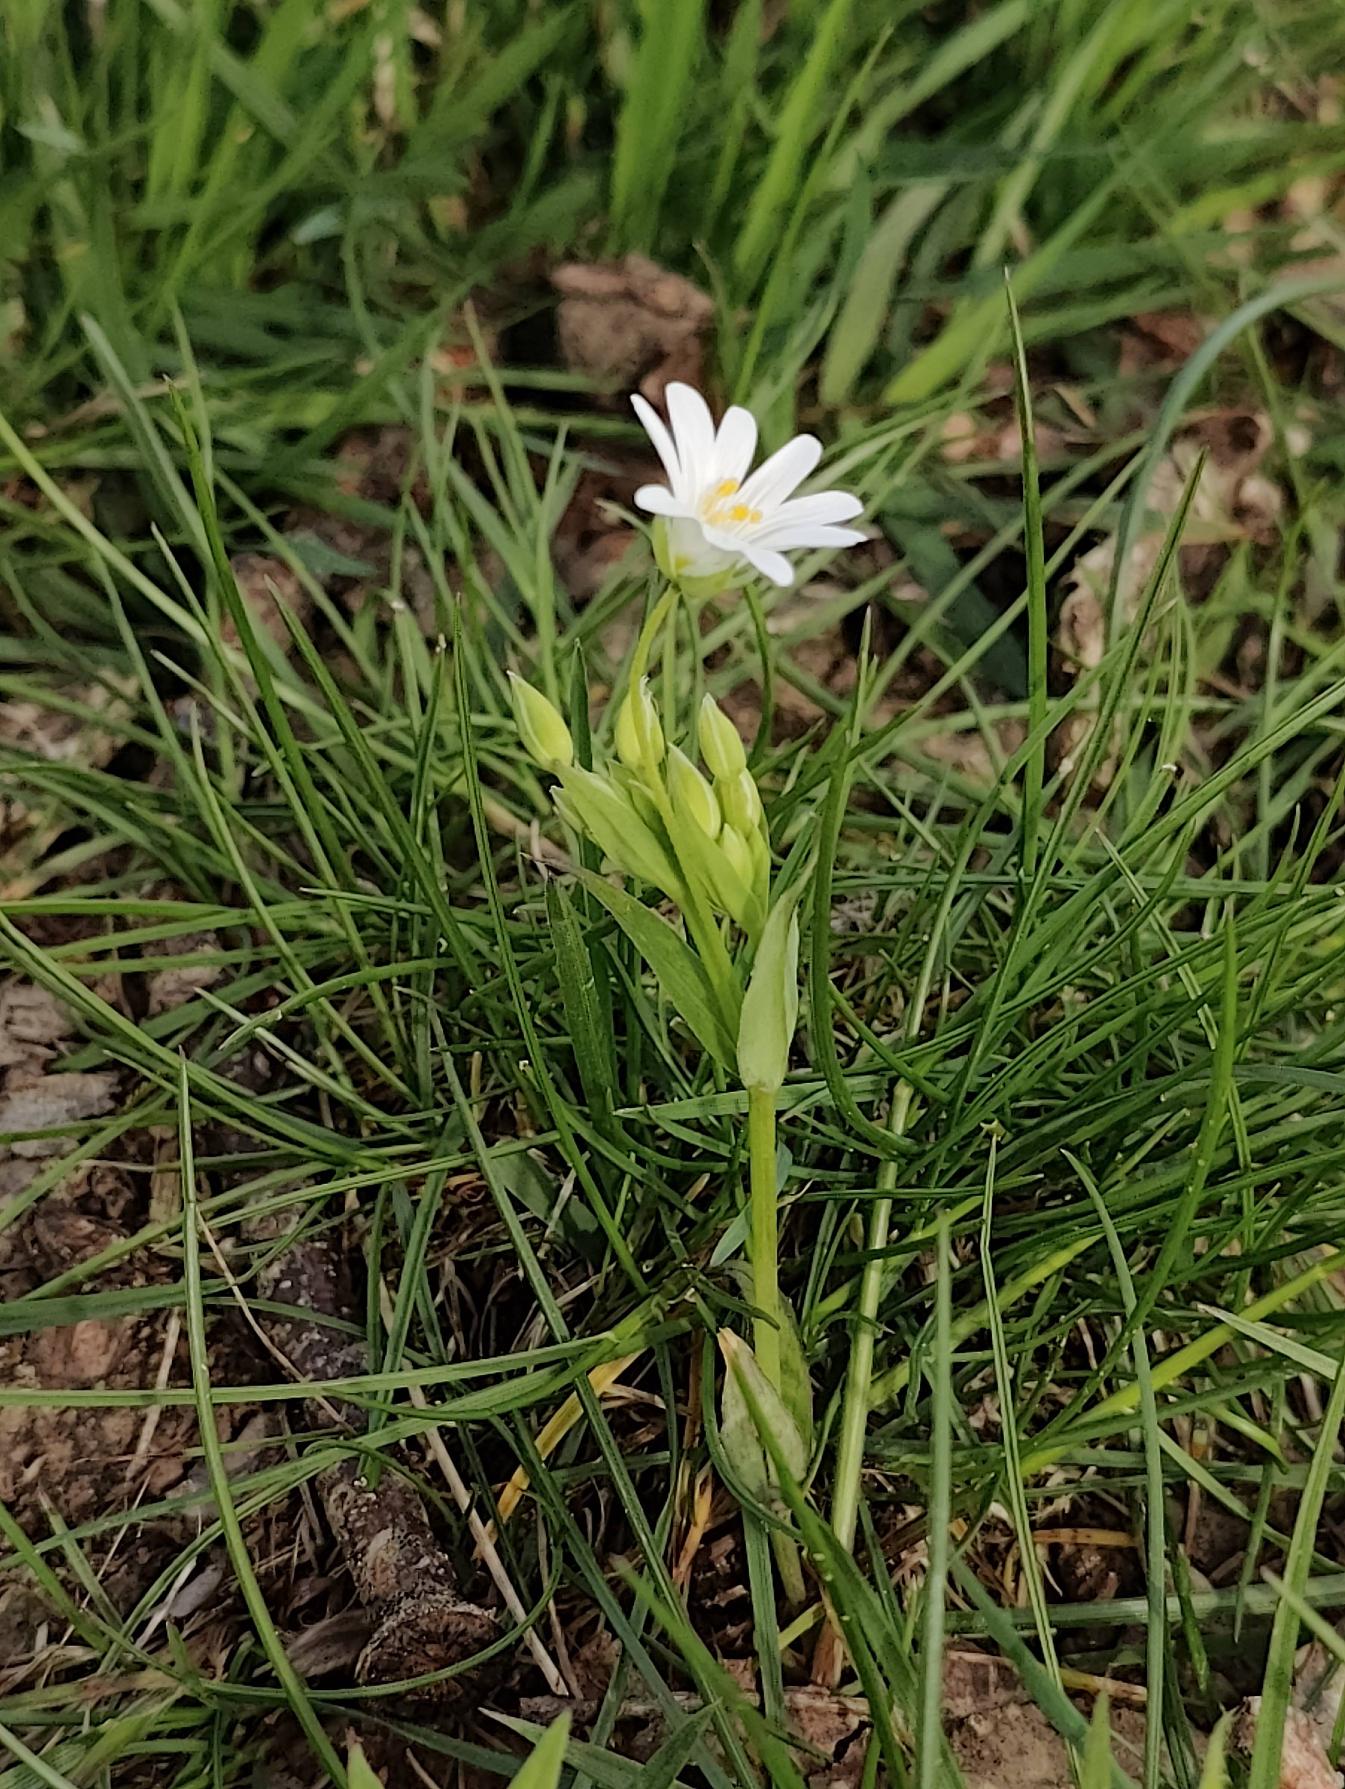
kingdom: Plantae
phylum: Tracheophyta
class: Magnoliopsida
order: Caryophyllales
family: Caryophyllaceae
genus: Rabelera
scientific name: Rabelera holostea
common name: Stor fladstjerne
